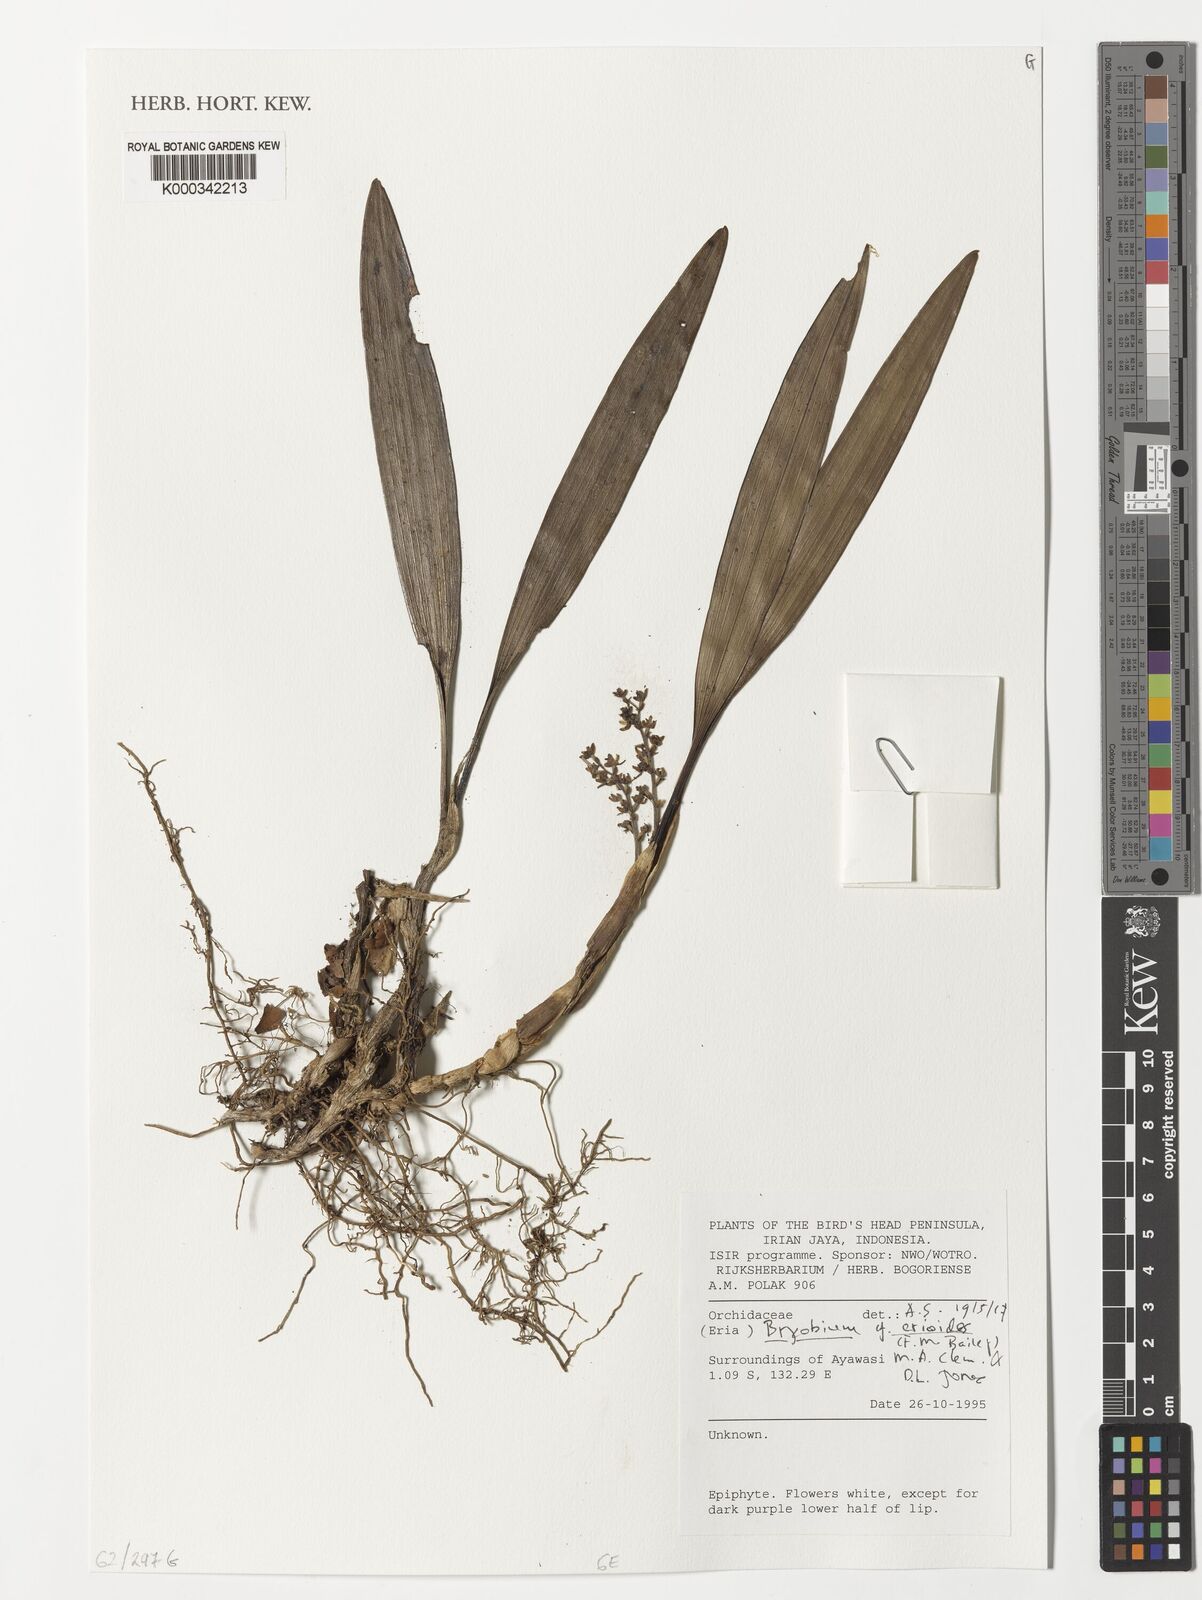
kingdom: Plantae
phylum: Tracheophyta
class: Liliopsida
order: Asparagales
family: Orchidaceae
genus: Bryobium
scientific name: Bryobium
